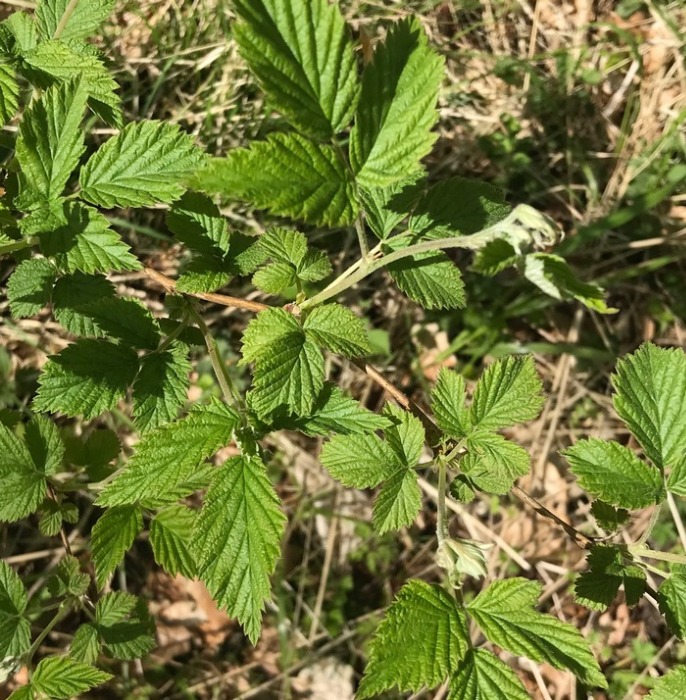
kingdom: Plantae
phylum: Tracheophyta
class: Magnoliopsida
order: Rosales
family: Rosaceae
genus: Rubus
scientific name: Rubus idaeus
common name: Hindbær
